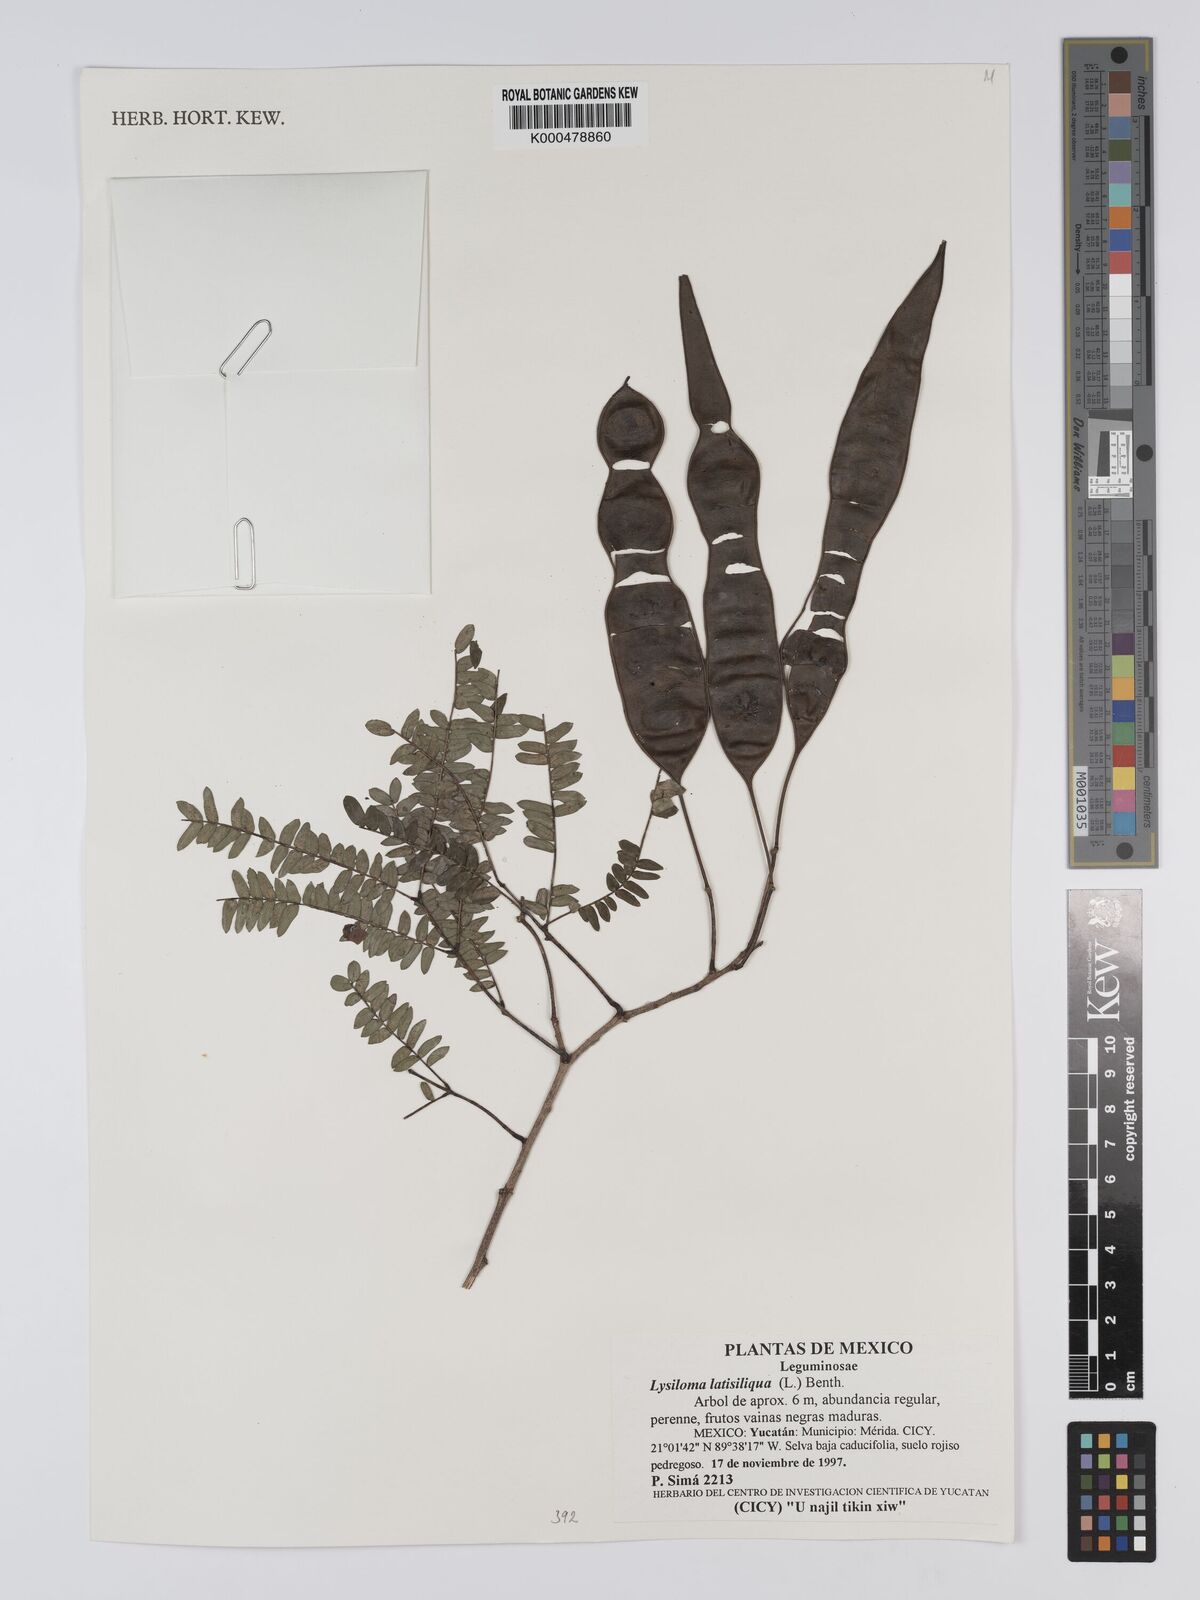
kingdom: Plantae
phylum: Tracheophyta
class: Magnoliopsida
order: Fabales
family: Fabaceae
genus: Lysiloma
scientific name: Lysiloma latisiliquum
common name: Wild tamarind
